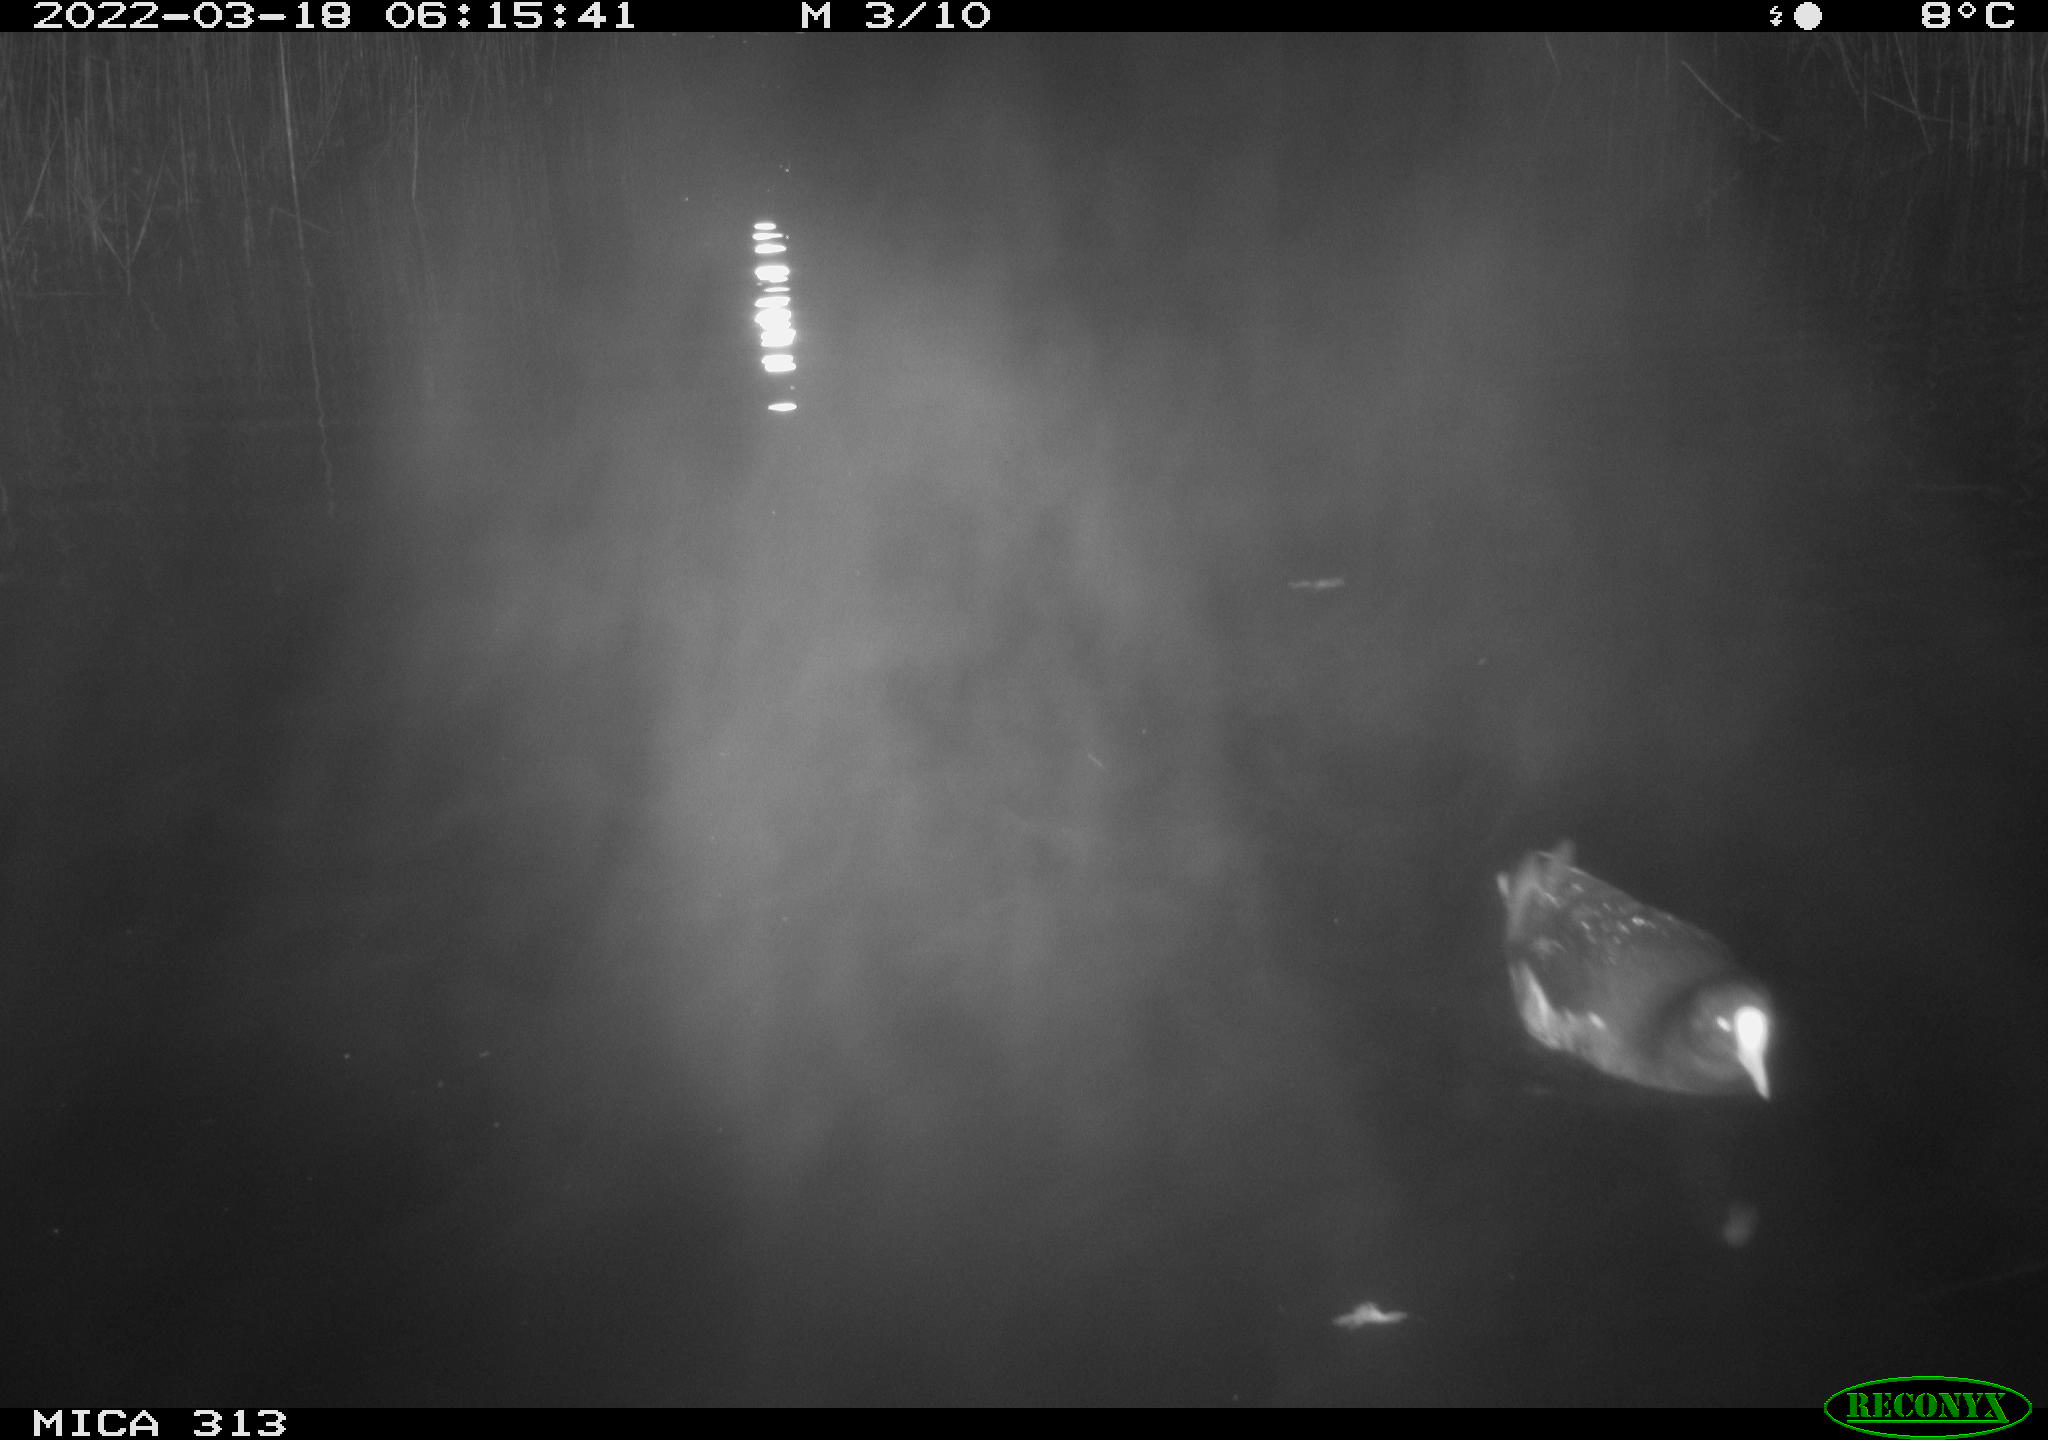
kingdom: Animalia
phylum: Chordata
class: Aves
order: Gruiformes
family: Rallidae
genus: Gallinula
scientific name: Gallinula chloropus
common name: Common moorhen
